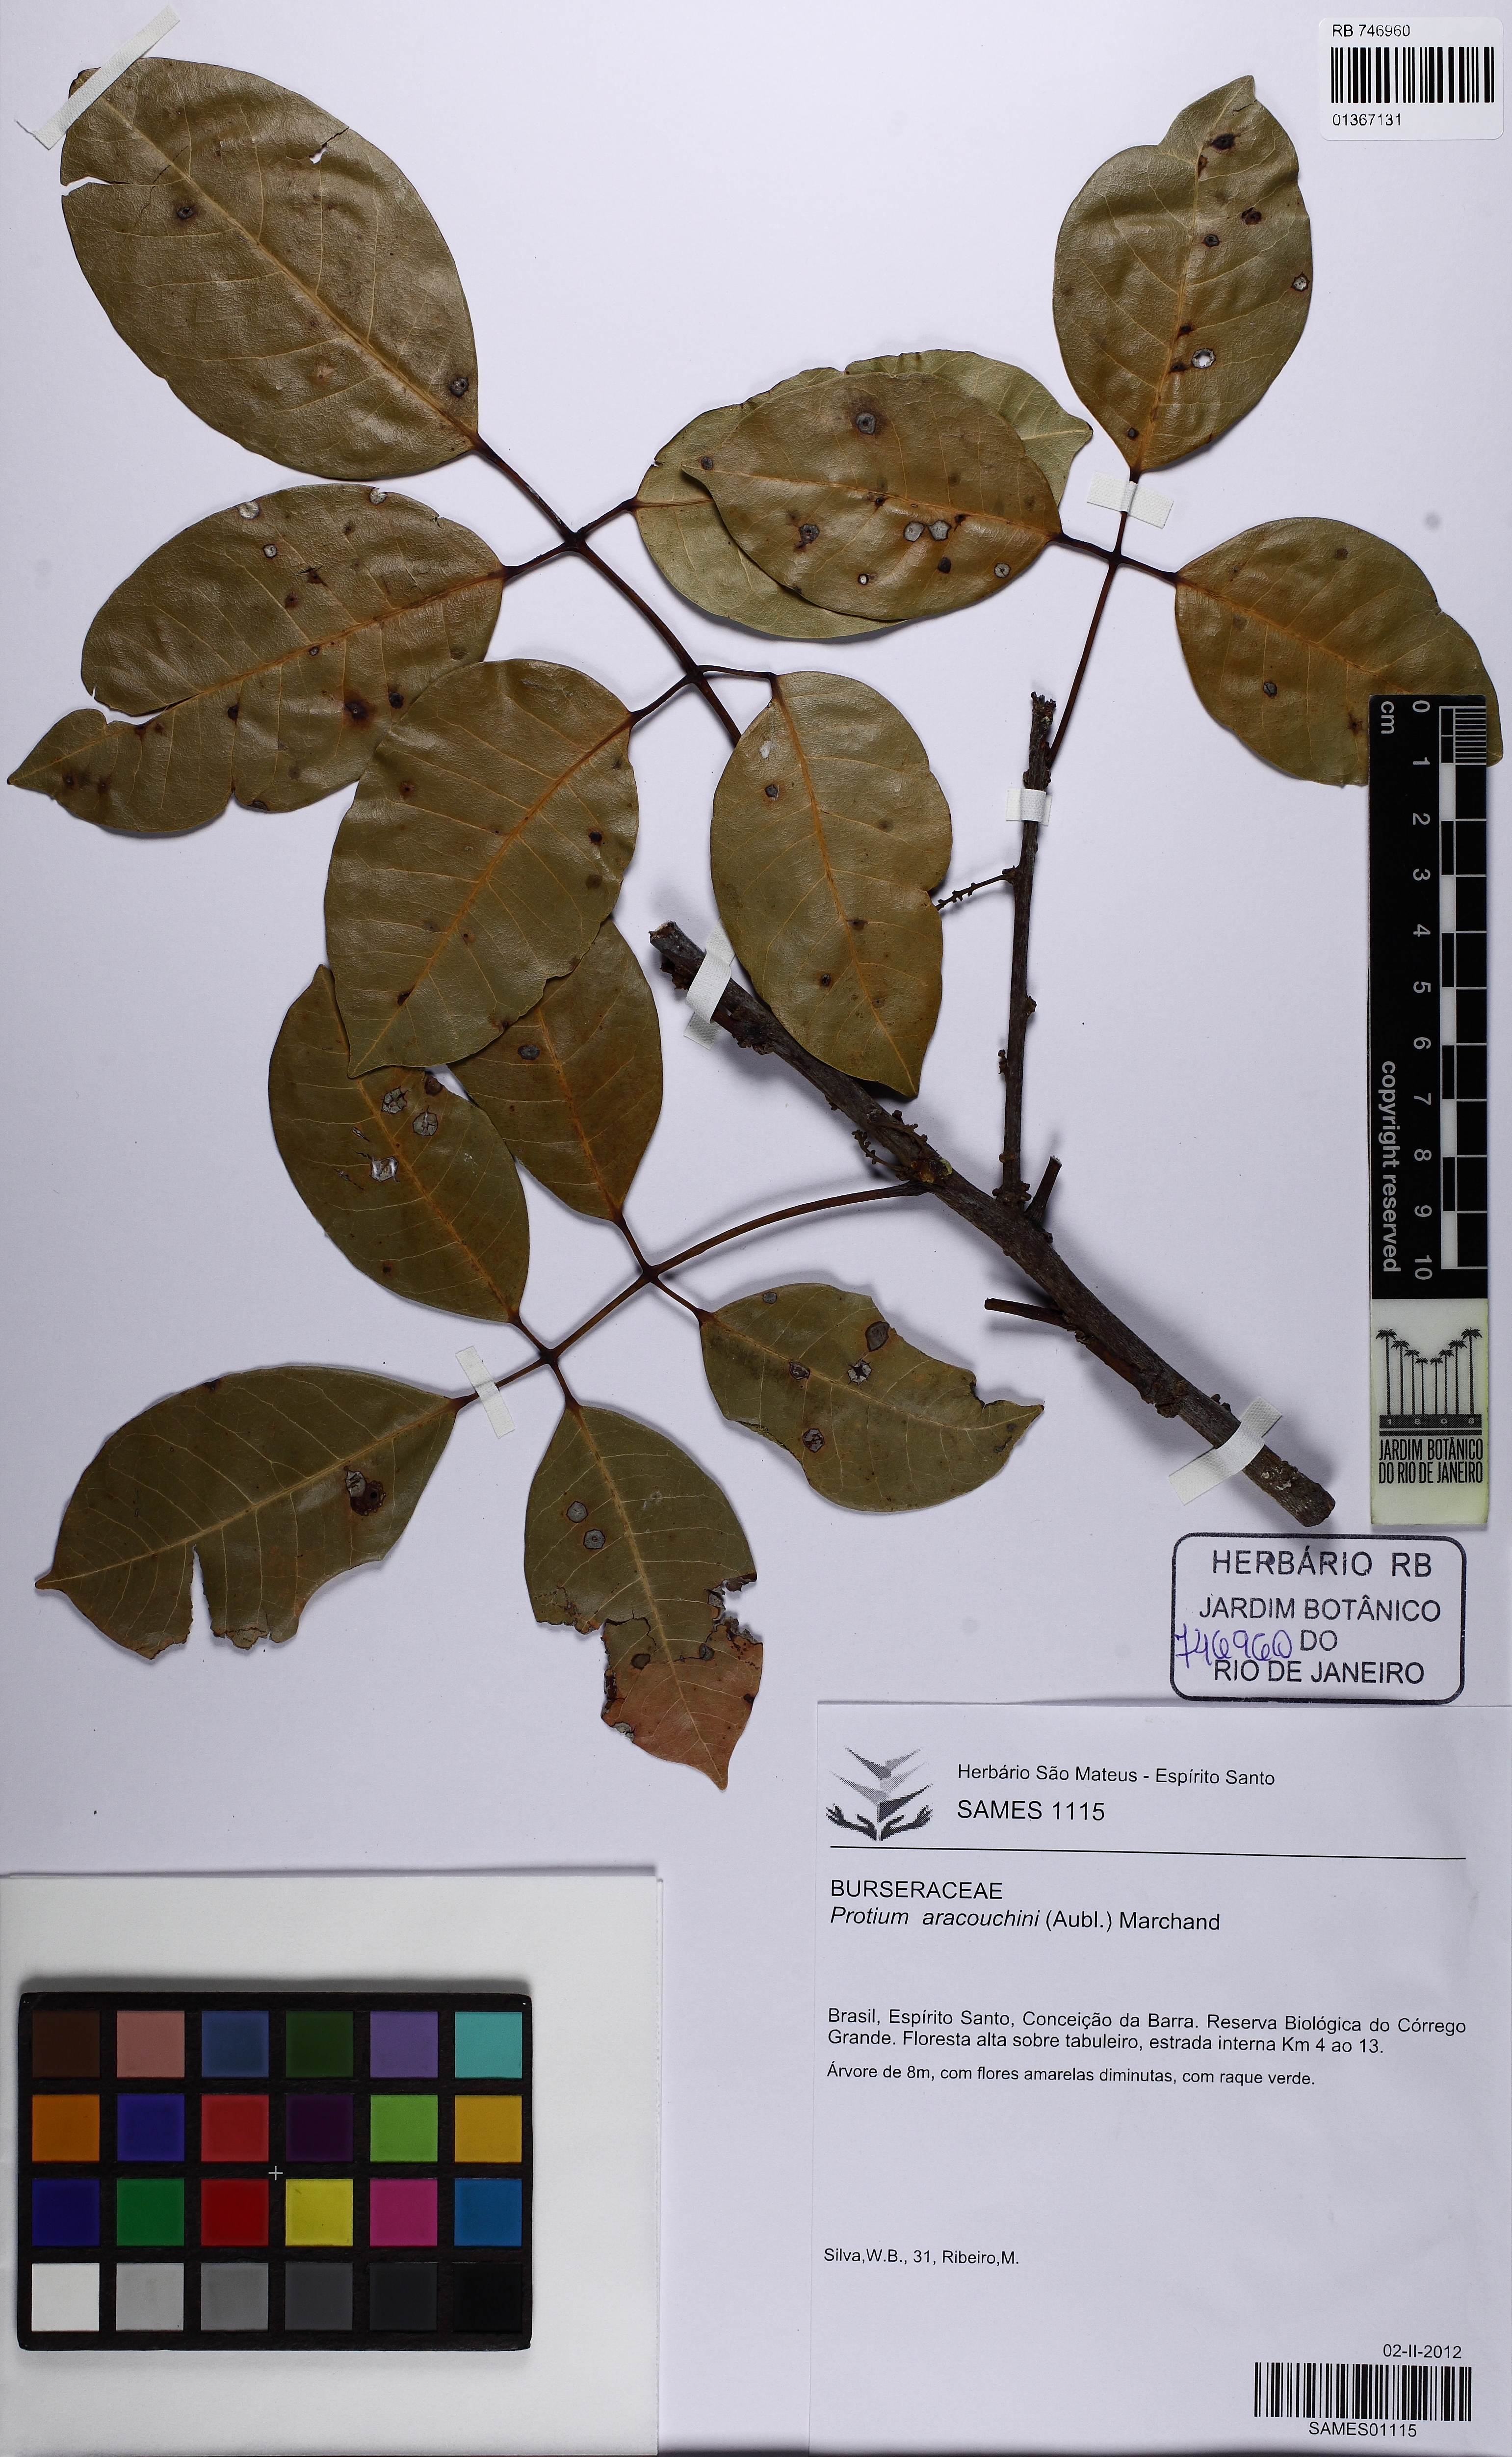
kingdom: Plantae
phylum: Tracheophyta
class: Magnoliopsida
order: Sapindales
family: Burseraceae
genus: Protium
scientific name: Protium aracouchini
